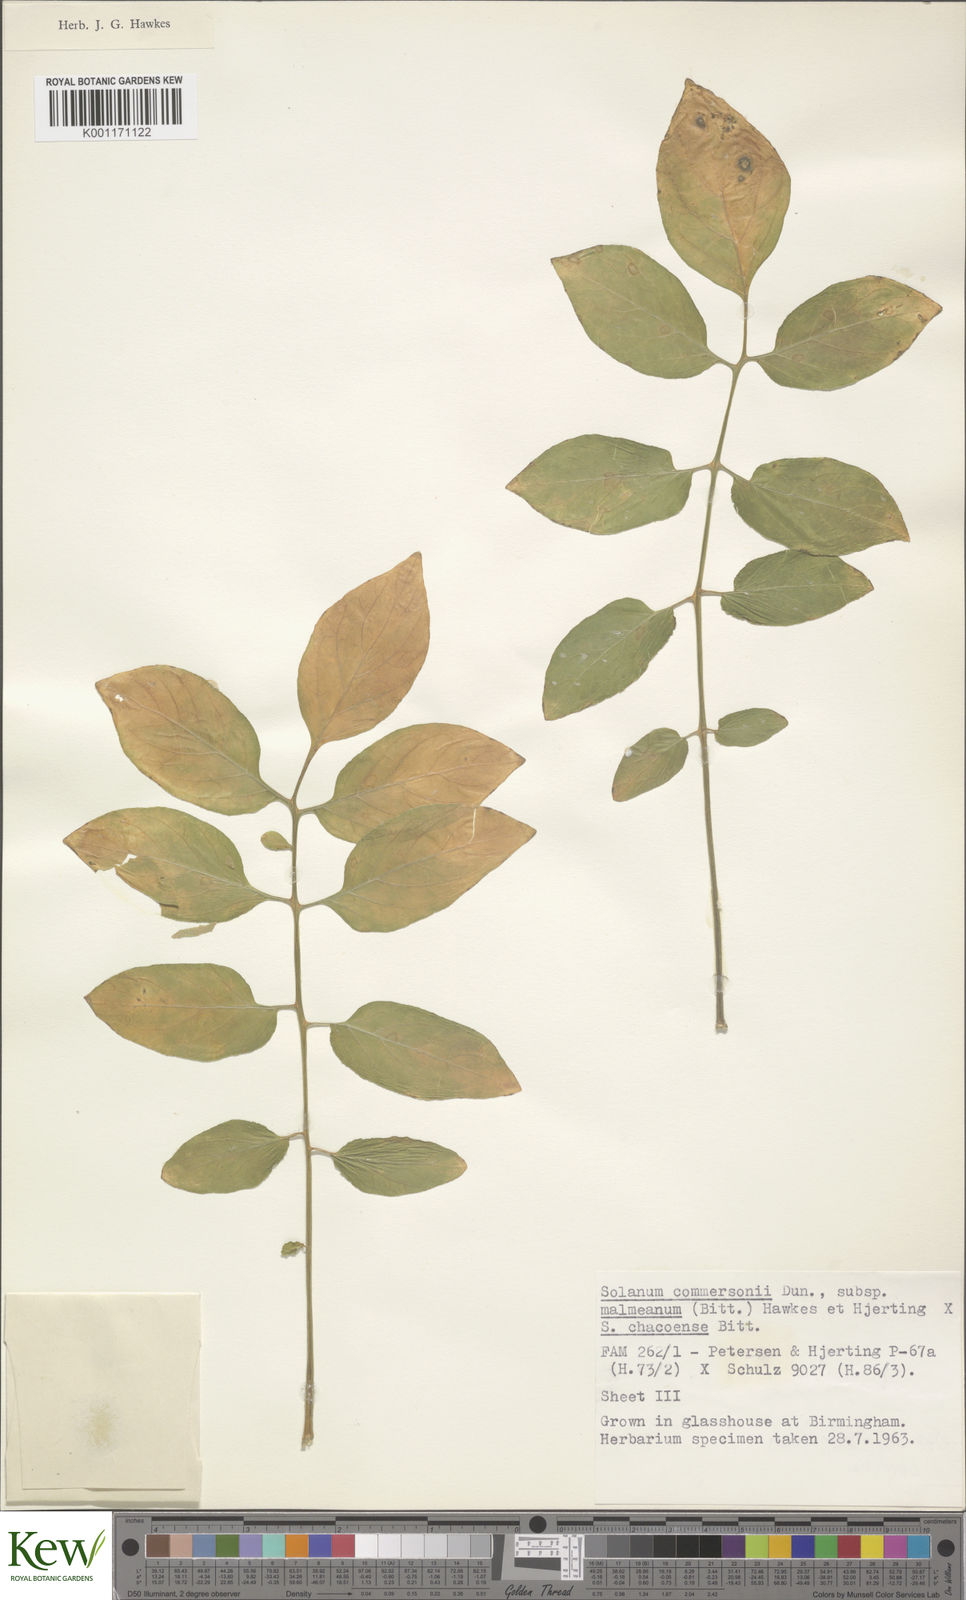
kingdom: Plantae
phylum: Tracheophyta
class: Magnoliopsida
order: Solanales
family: Solanaceae
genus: Solanum
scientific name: Solanum malmeanum
